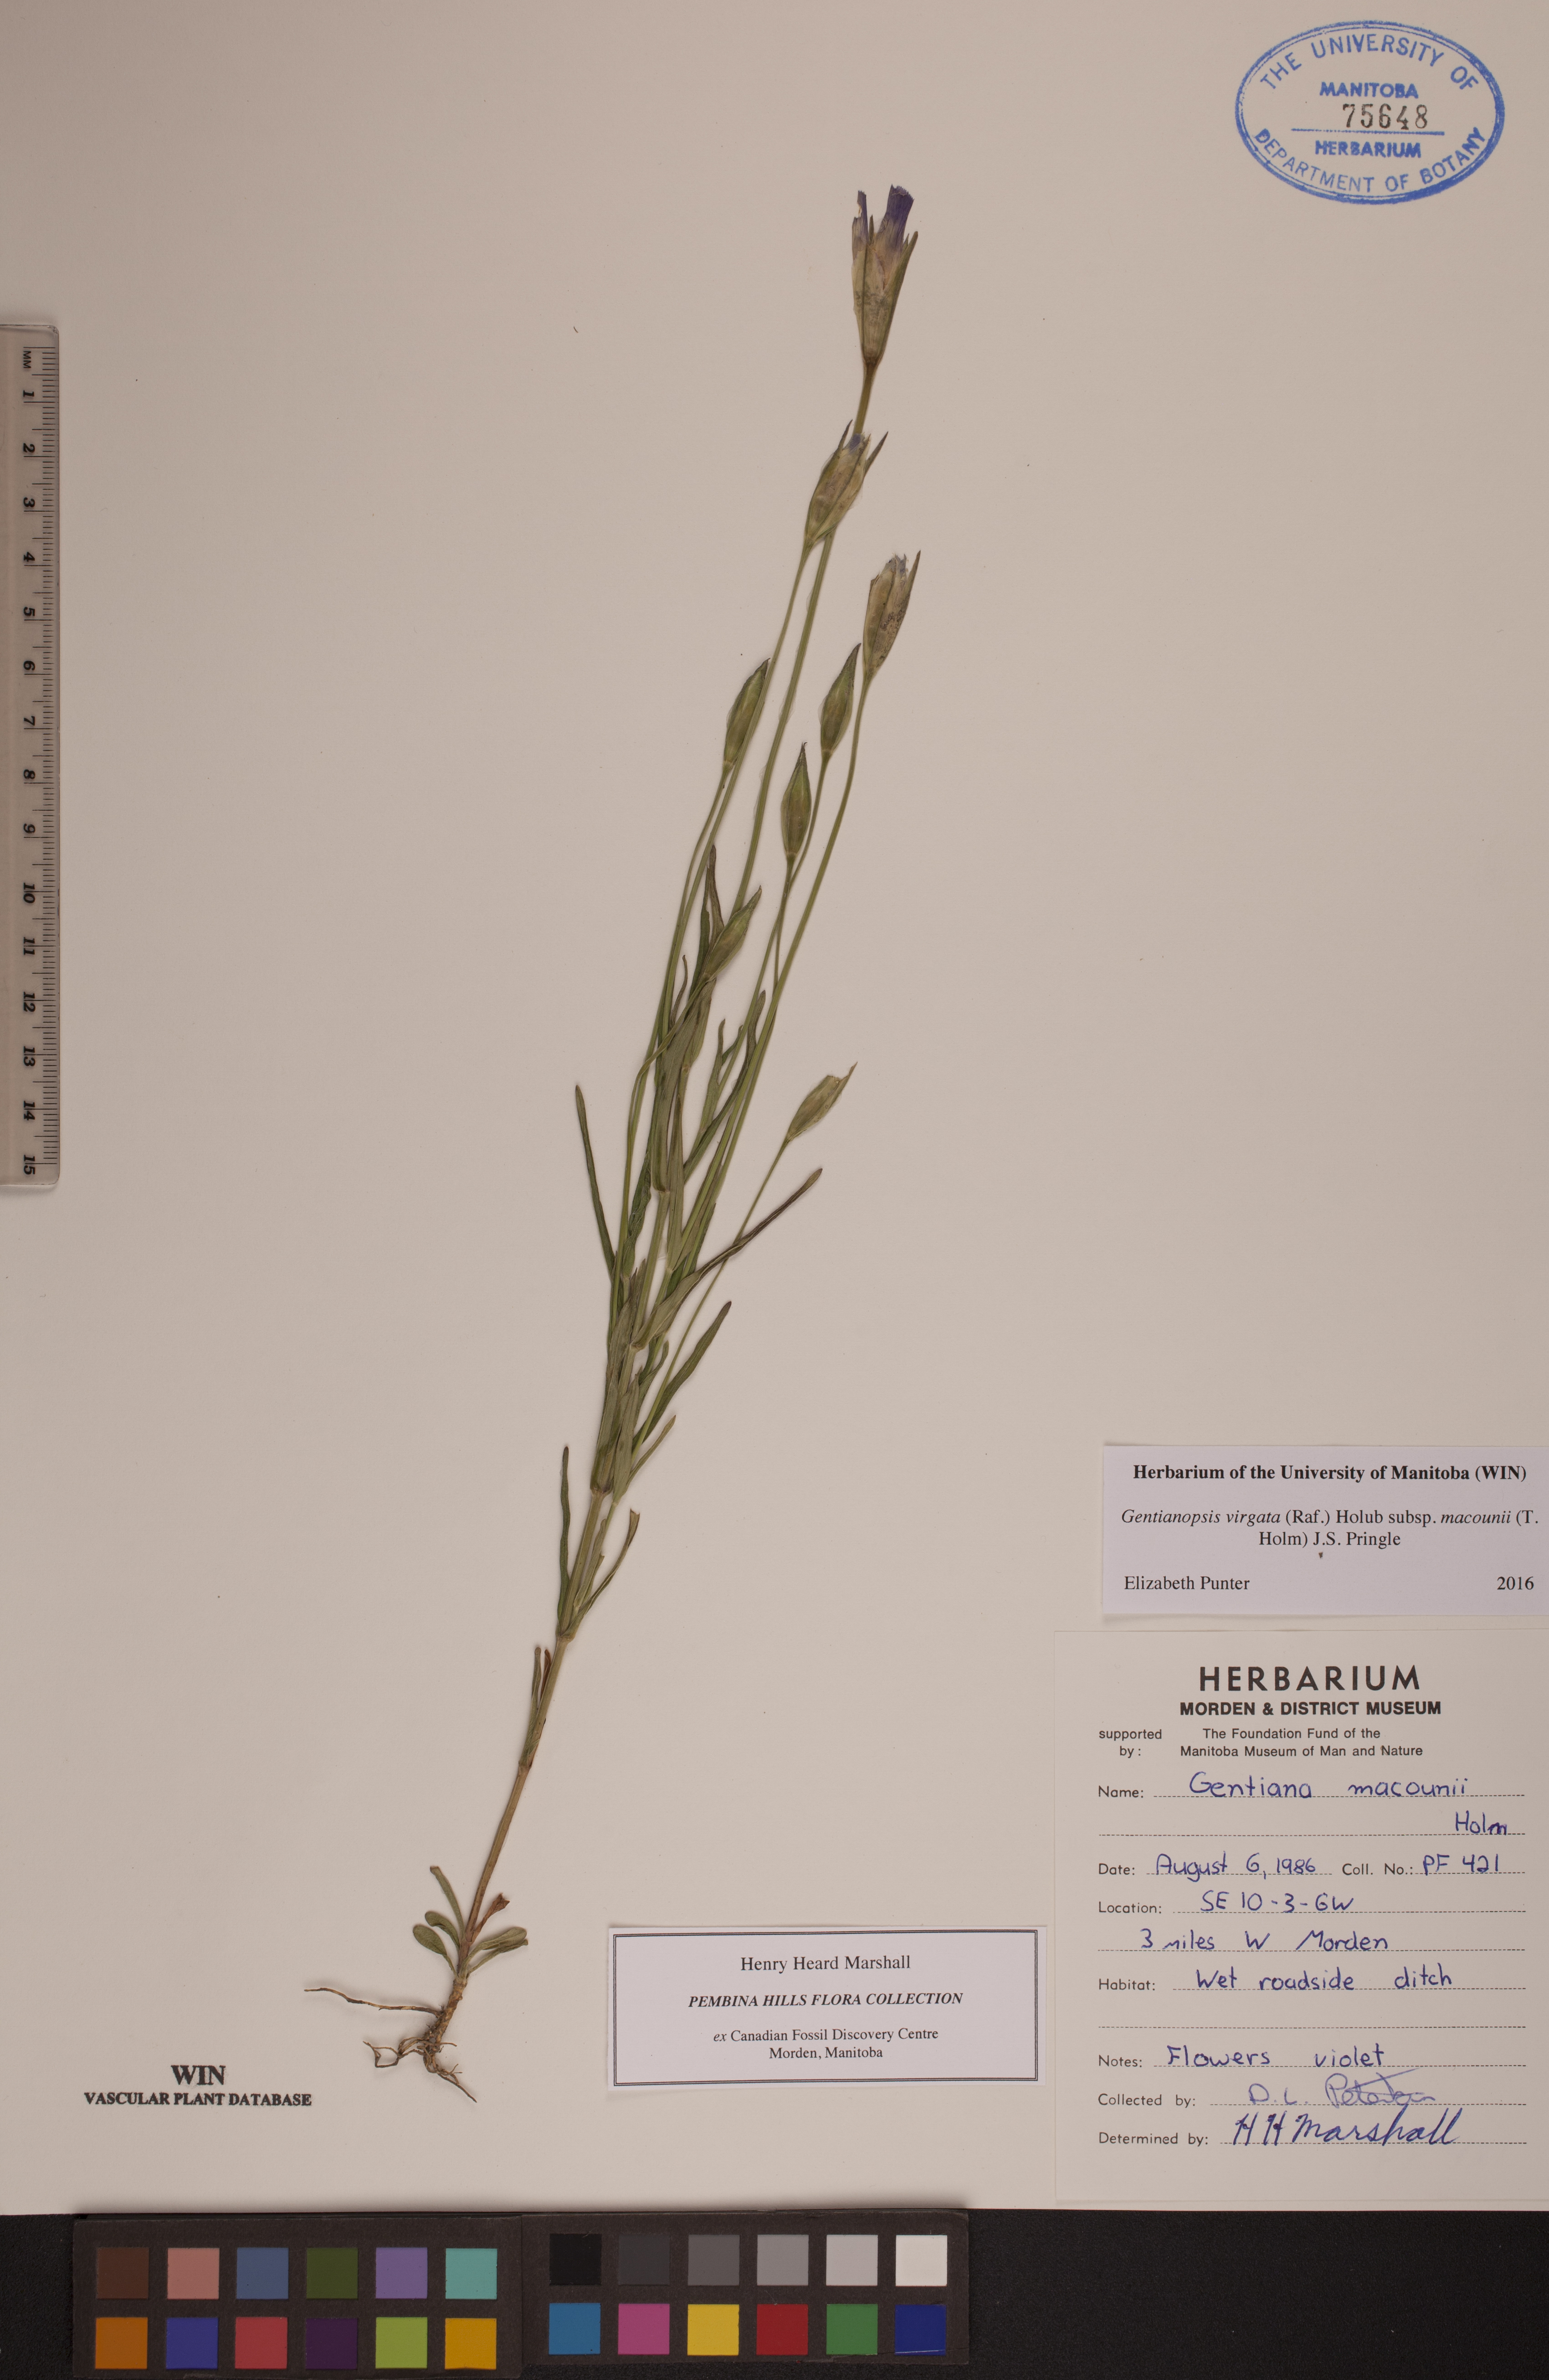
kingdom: Plantae
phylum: Tracheophyta
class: Magnoliopsida
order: Gentianales
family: Gentianaceae
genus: Gentianopsis
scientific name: Gentianopsis macounii
